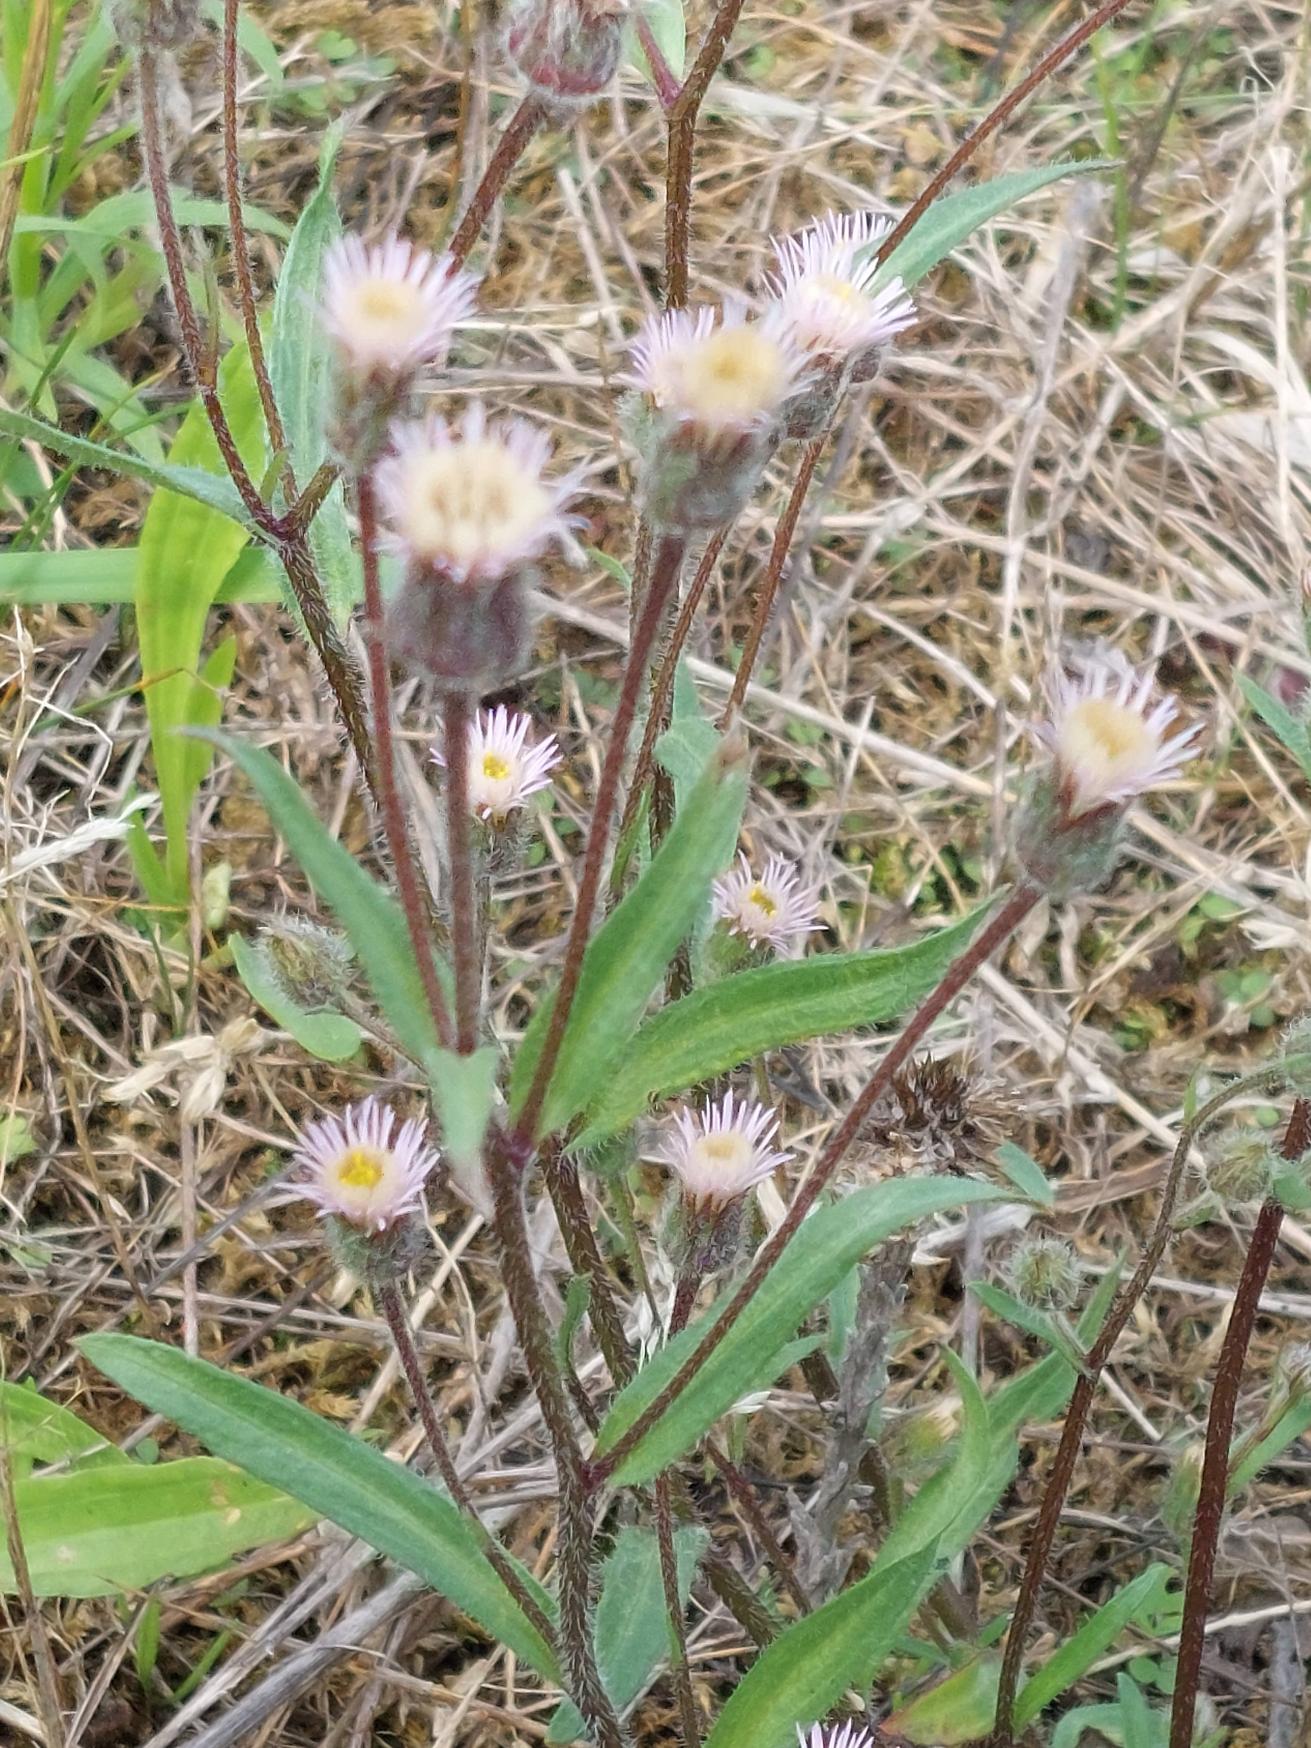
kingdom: Plantae
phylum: Tracheophyta
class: Magnoliopsida
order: Asterales
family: Asteraceae
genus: Erigeron
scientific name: Erigeron muralis
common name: Vreden bakkestjerne
